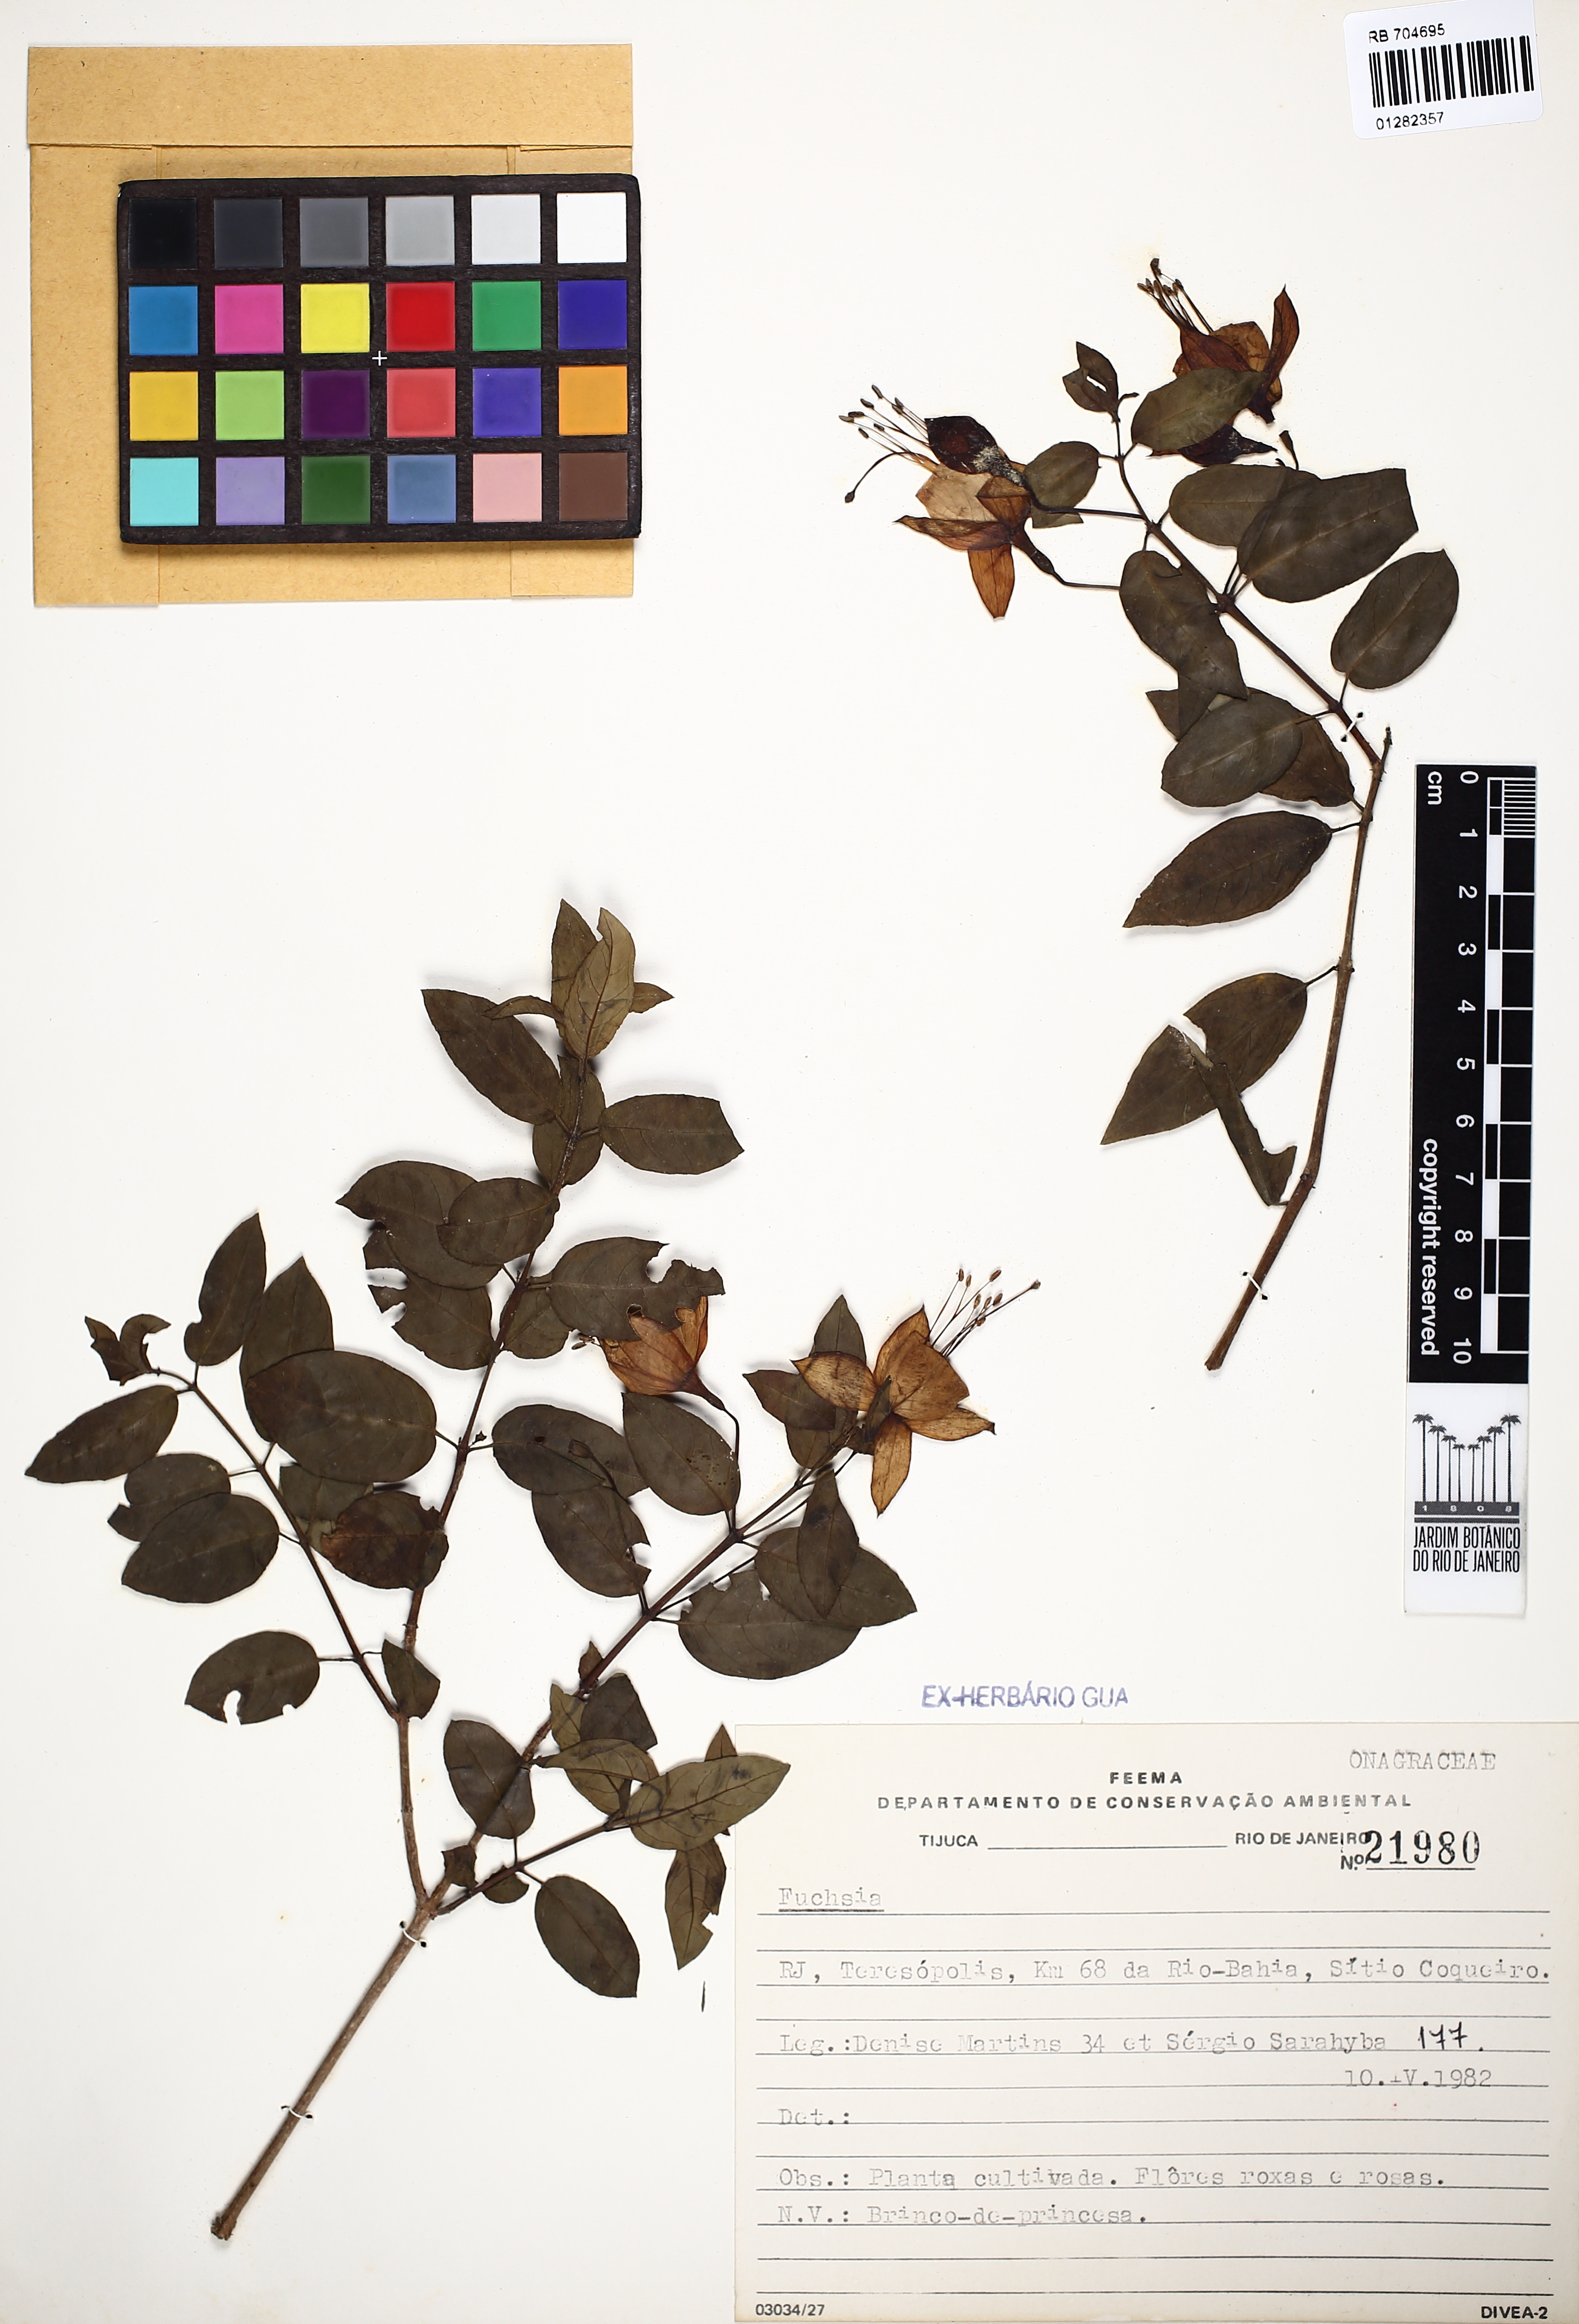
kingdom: Plantae
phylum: Tracheophyta
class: Magnoliopsida
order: Myrtales
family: Onagraceae
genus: Fuchsia
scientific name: Fuchsia
